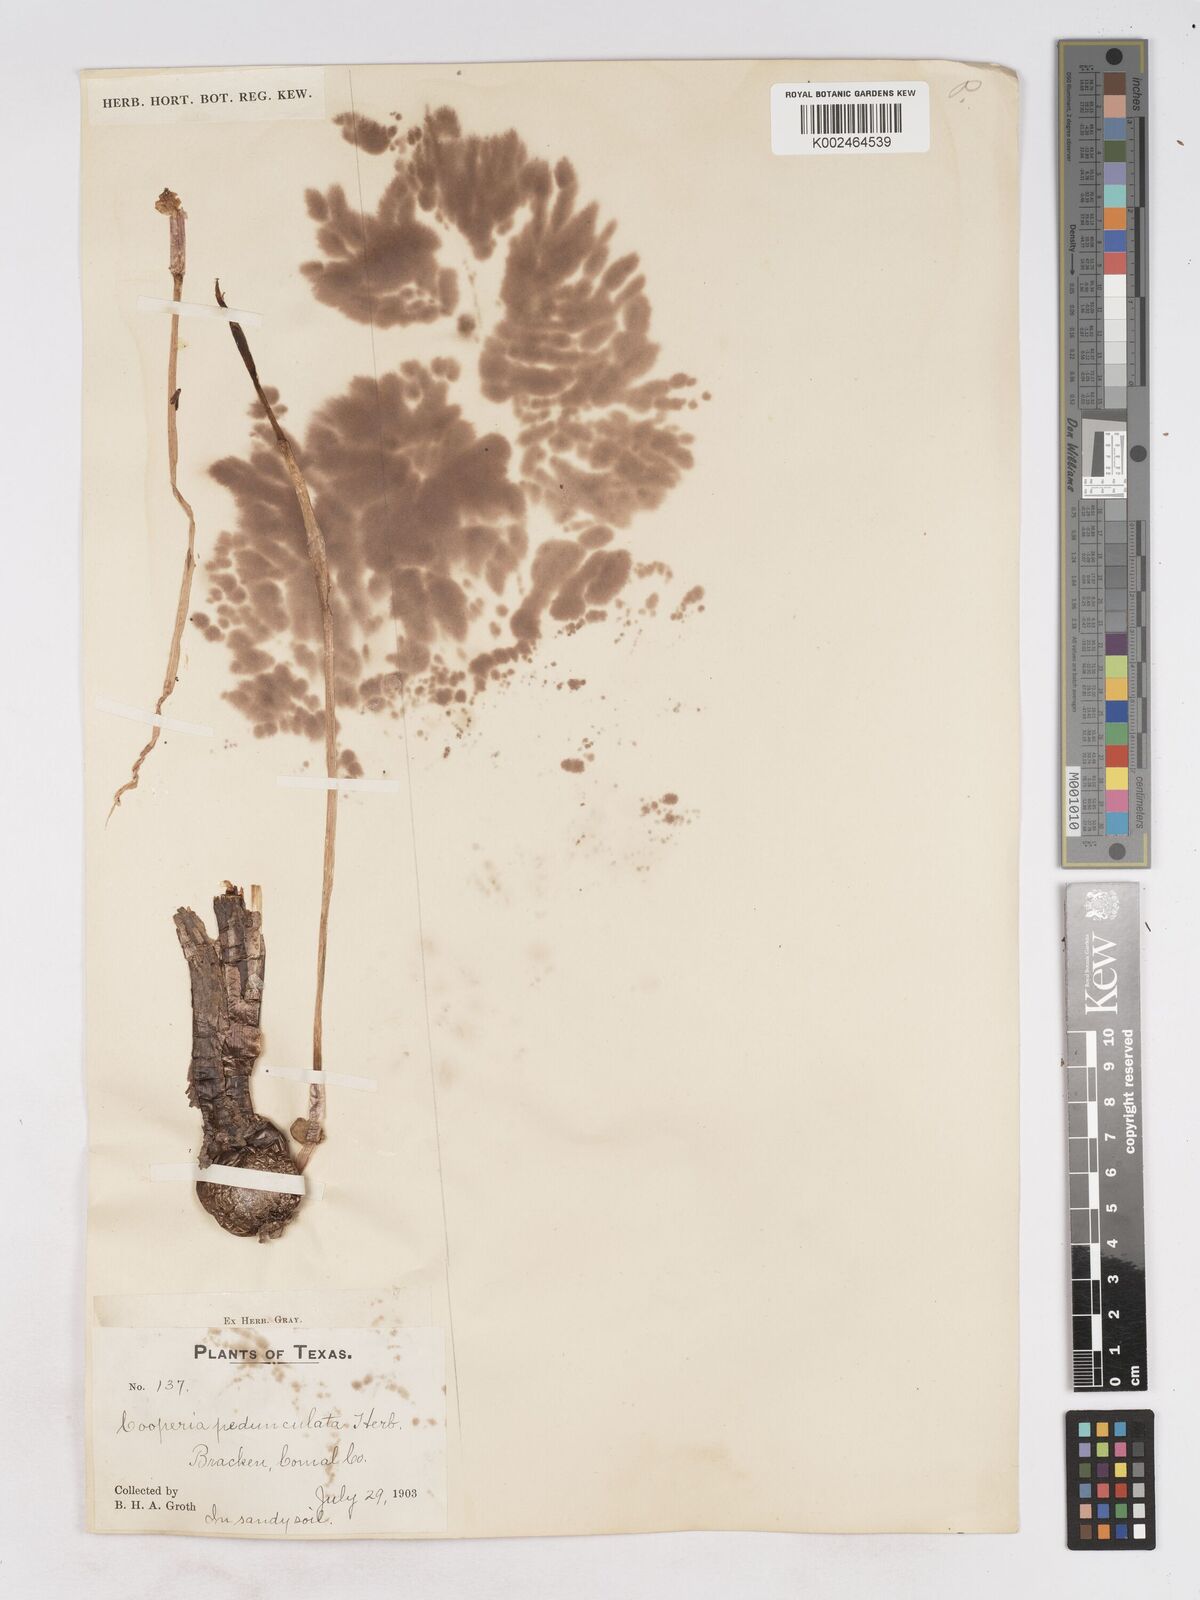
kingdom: Plantae
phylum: Tracheophyta
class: Liliopsida
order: Asparagales
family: Amaryllidaceae
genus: Zephyranthes
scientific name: Zephyranthes drummondii
